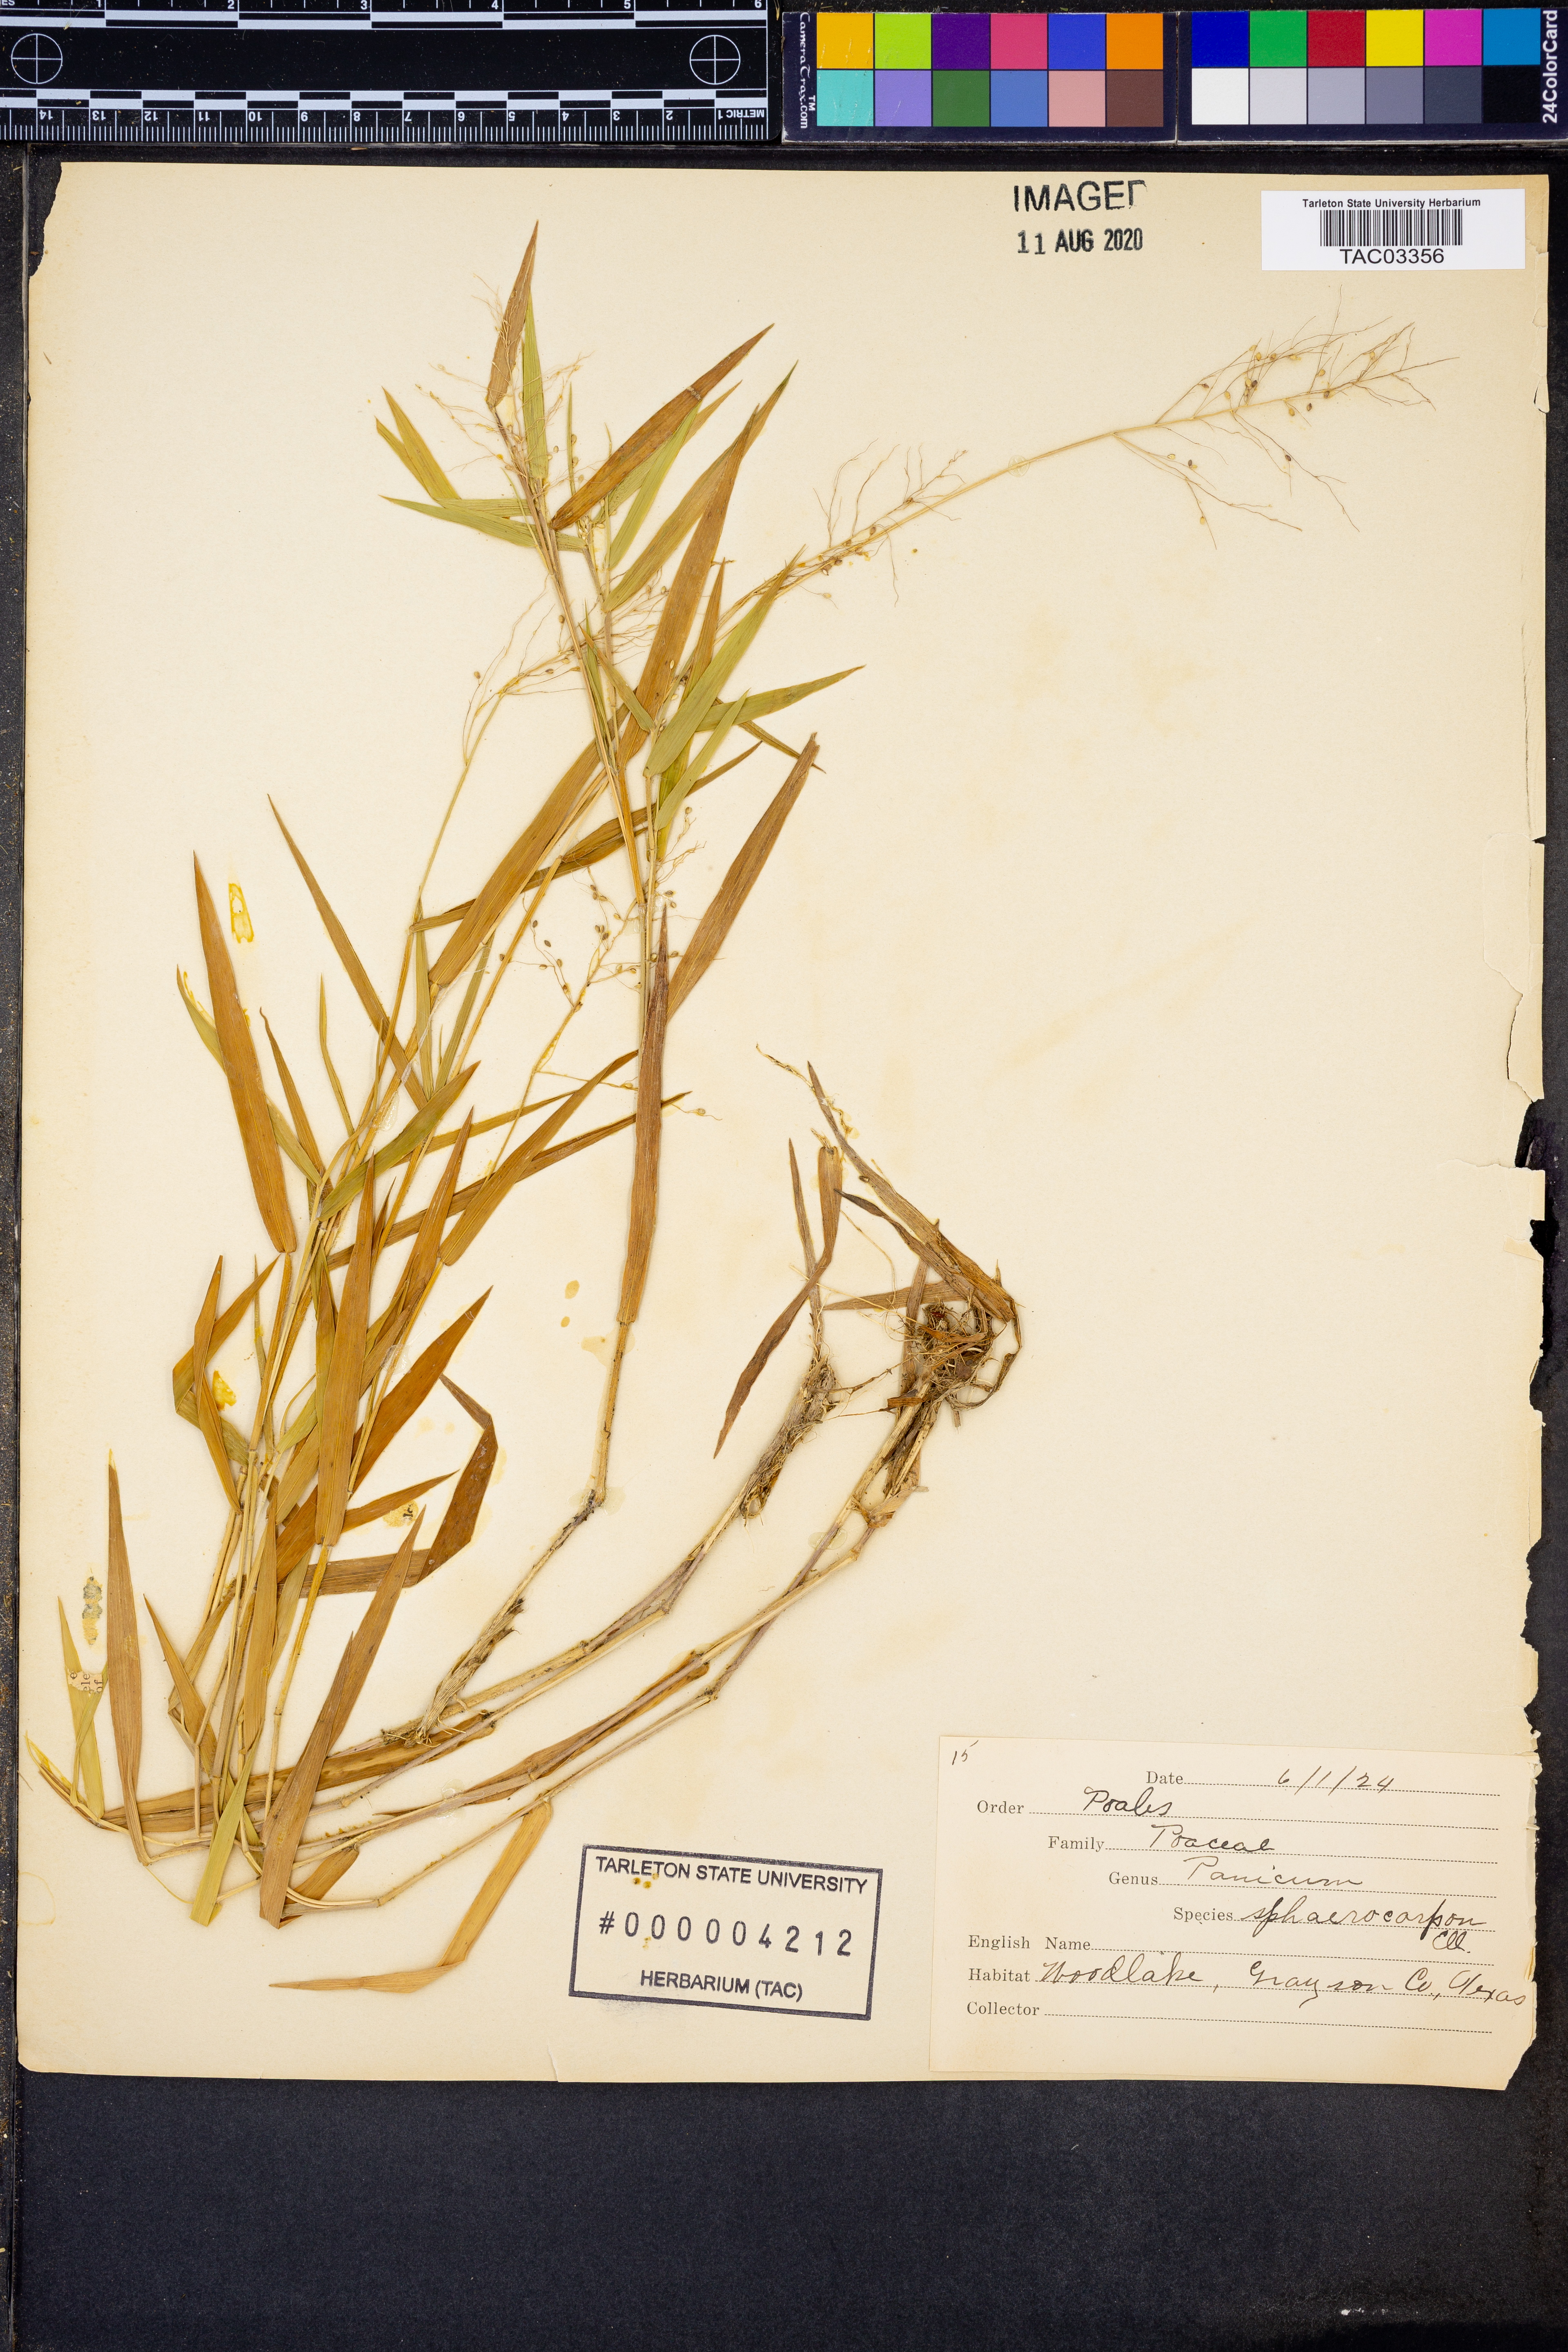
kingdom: Plantae
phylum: Tracheophyta
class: Liliopsida
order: Poales
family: Poaceae
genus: Dichanthelium
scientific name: Dichanthelium sphaerocarpon
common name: Round-fruited panicgrass
